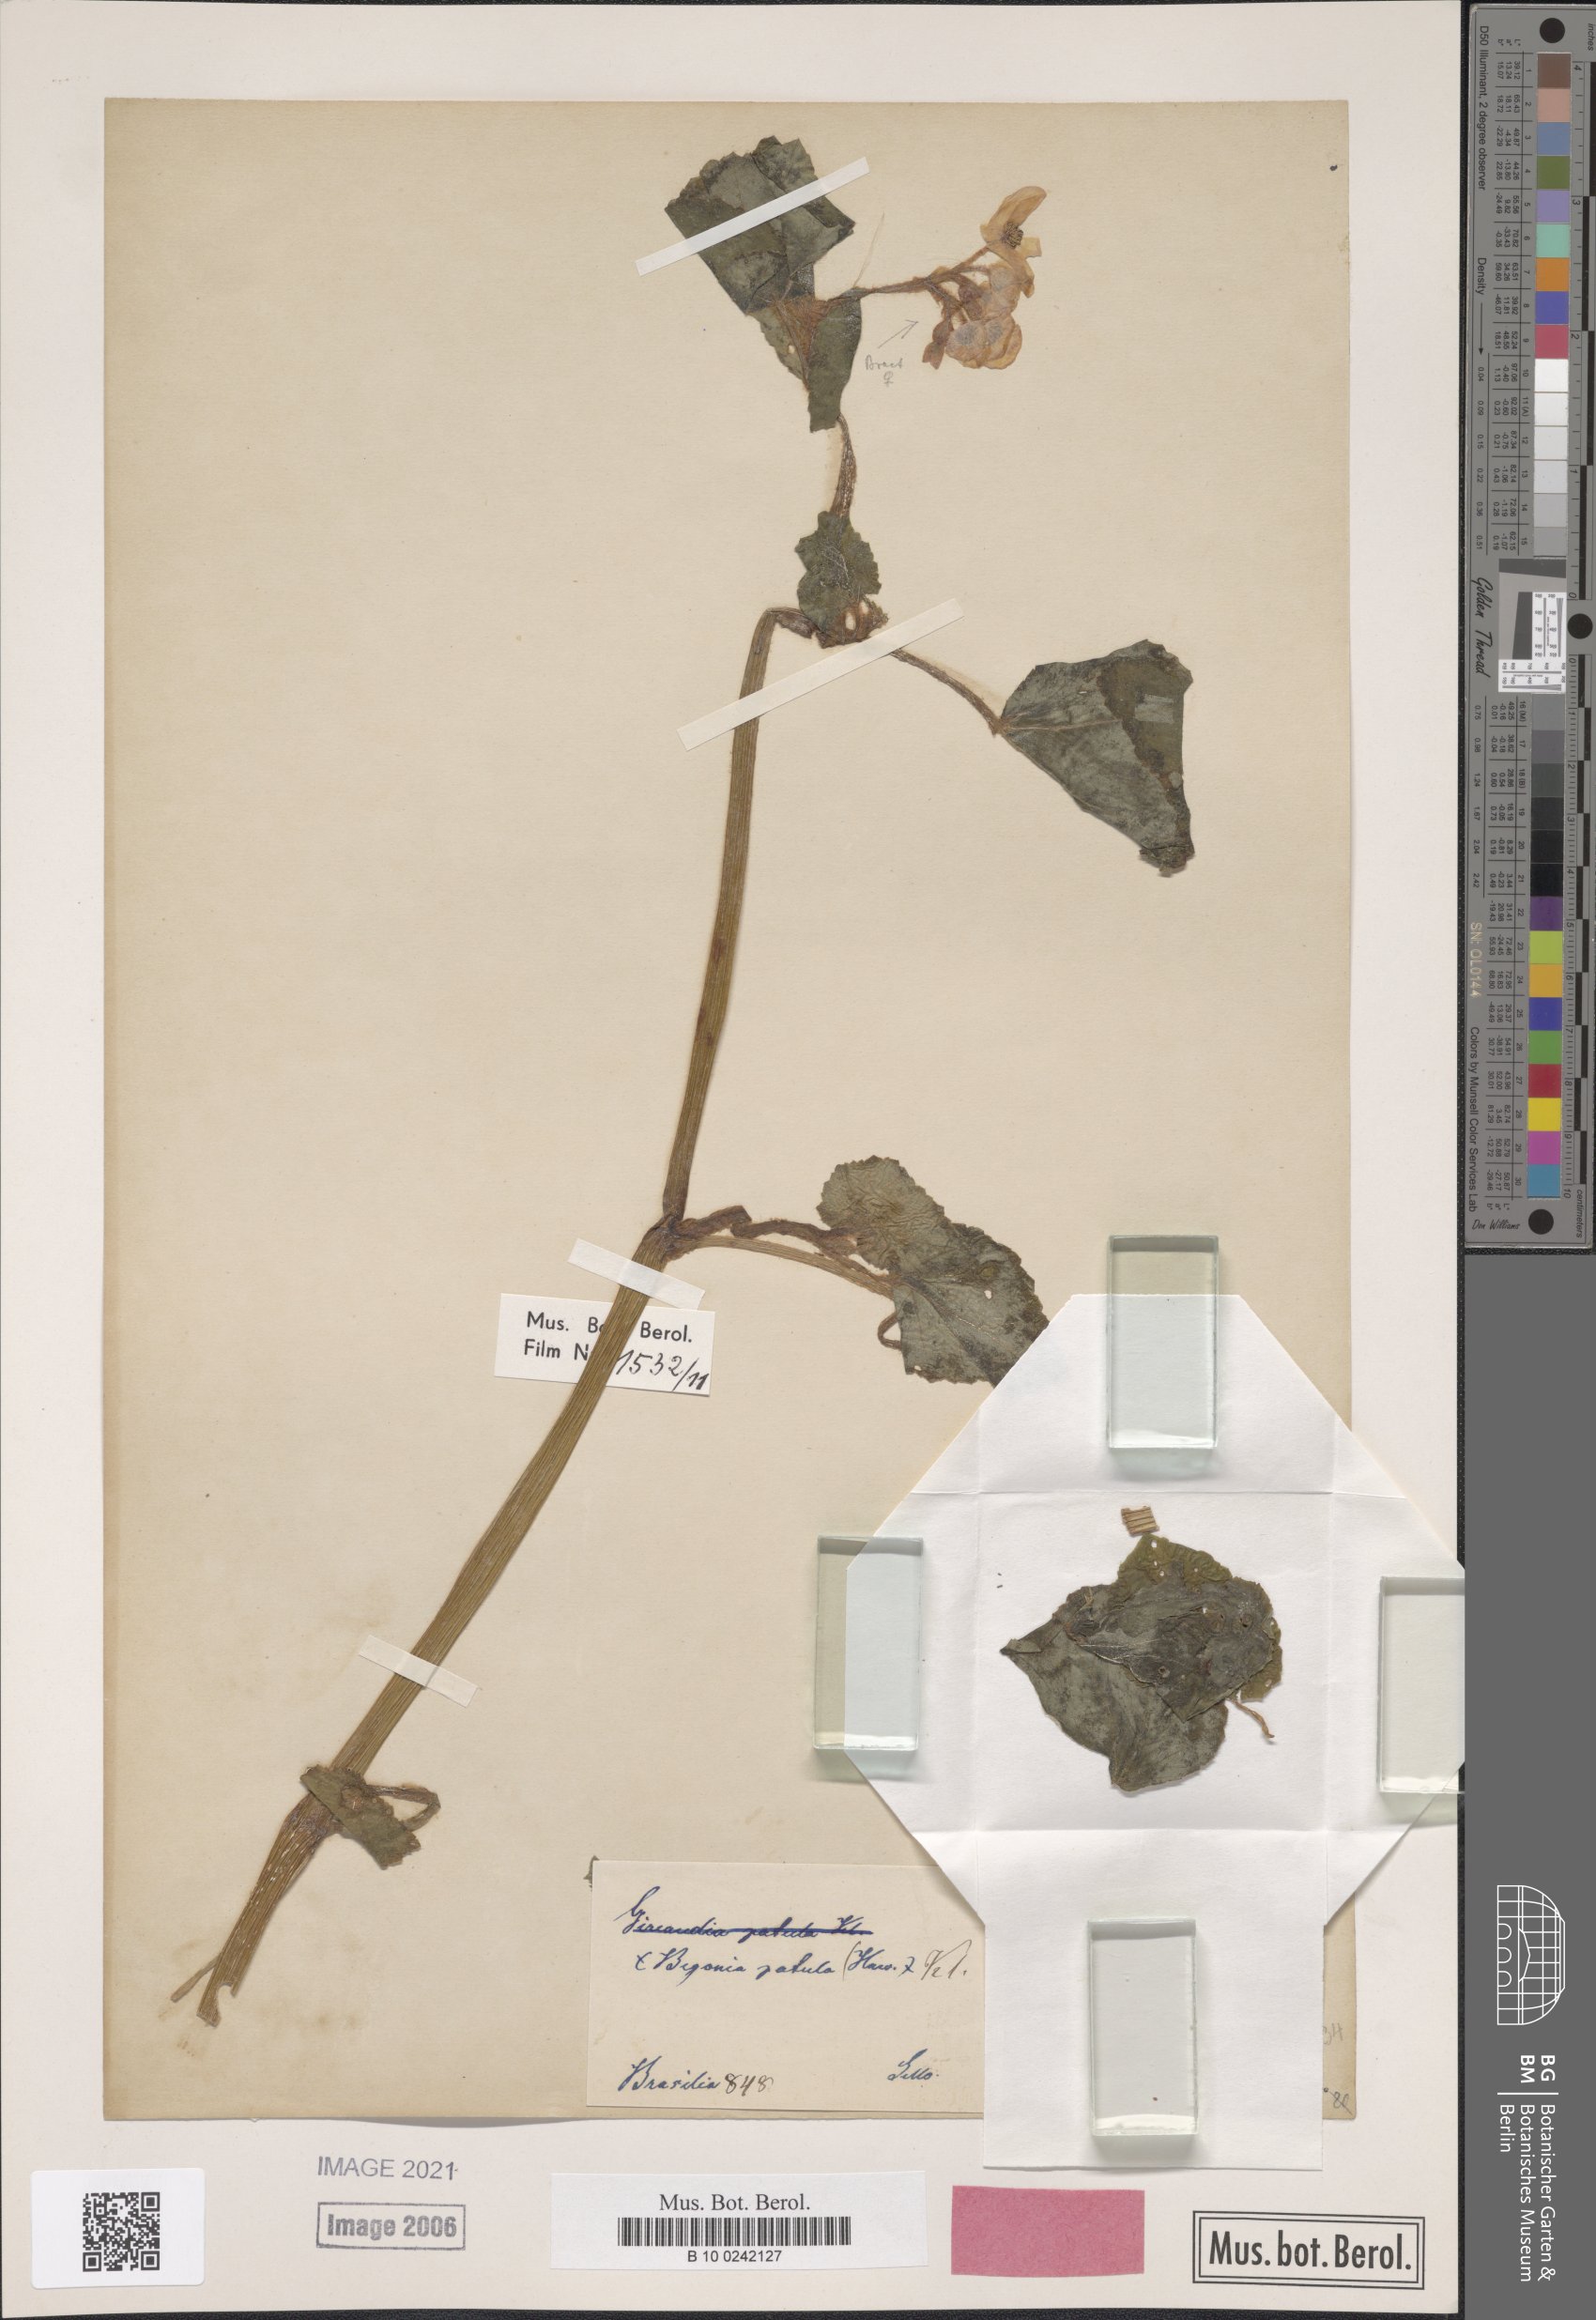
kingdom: Plantae
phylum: Tracheophyta
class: Magnoliopsida
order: Cucurbitales
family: Begoniaceae
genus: Begonia
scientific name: Begonia fischeri
